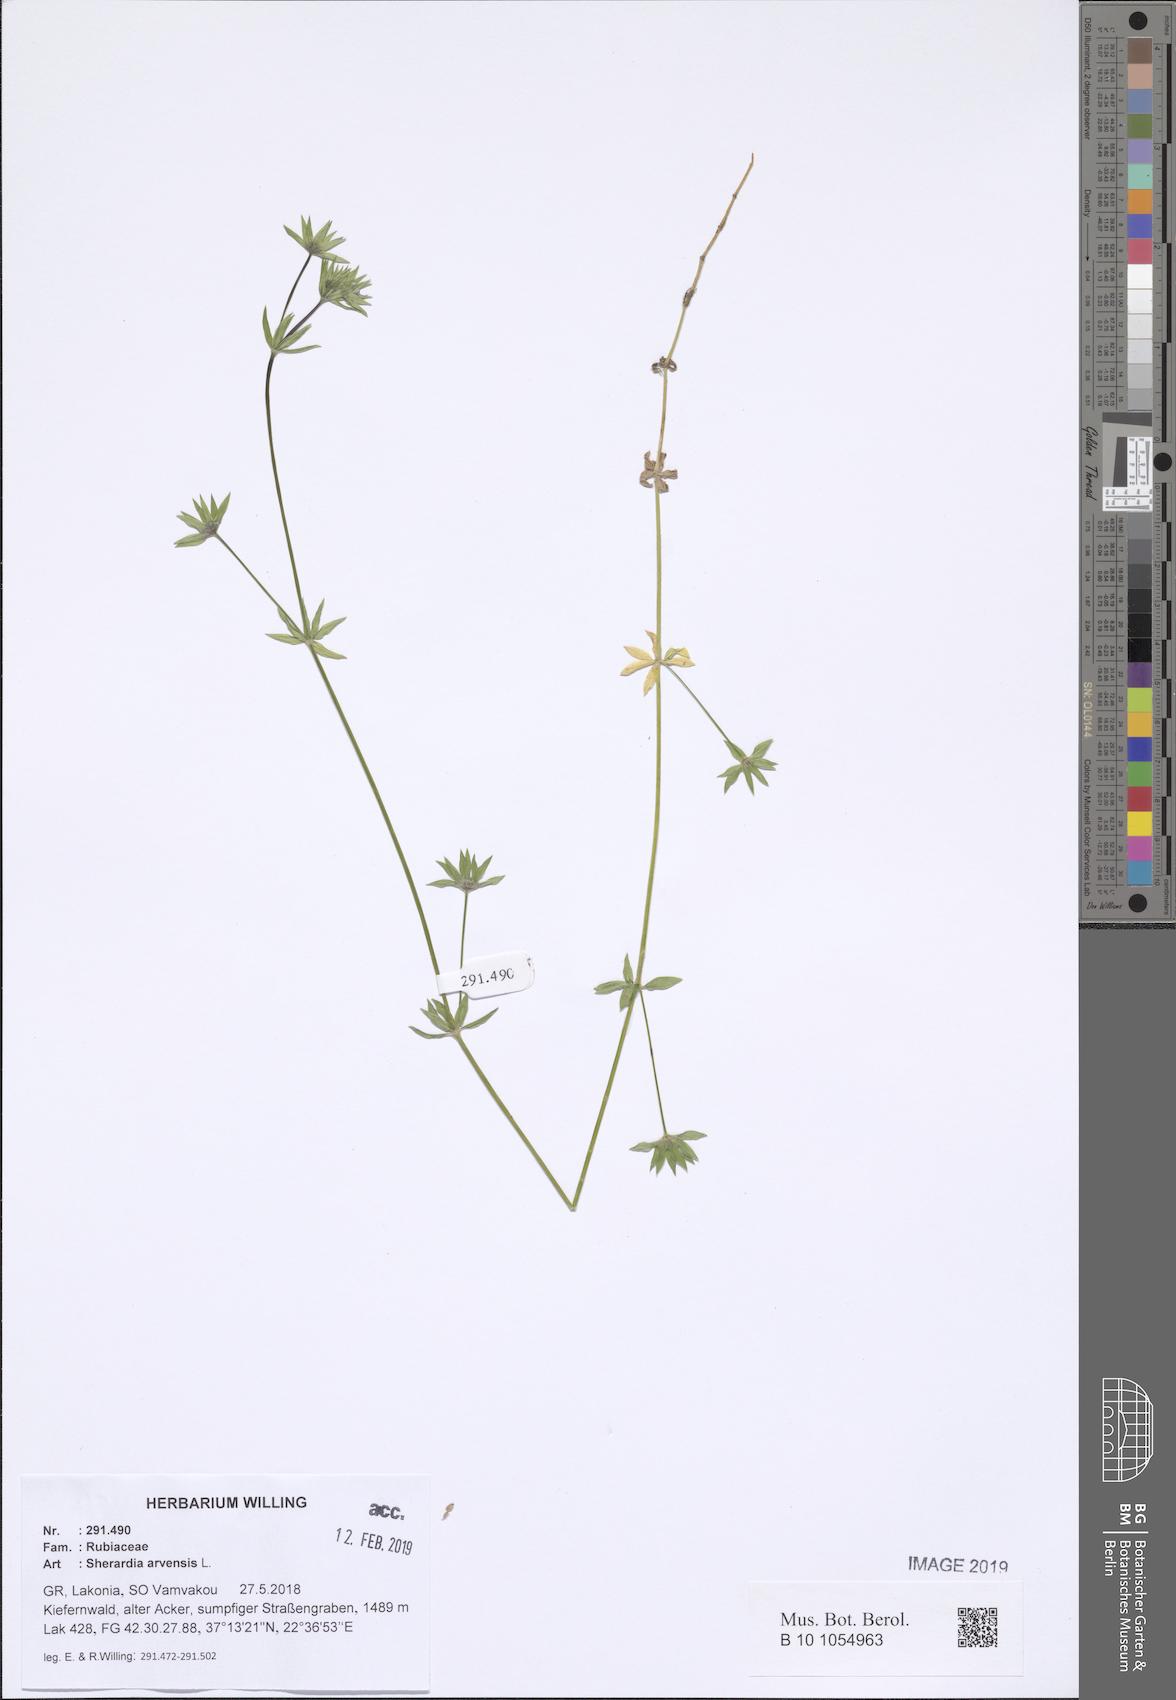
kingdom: Plantae
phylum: Tracheophyta
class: Magnoliopsida
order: Gentianales
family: Rubiaceae
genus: Sherardia
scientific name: Sherardia arvensis
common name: Field madder
